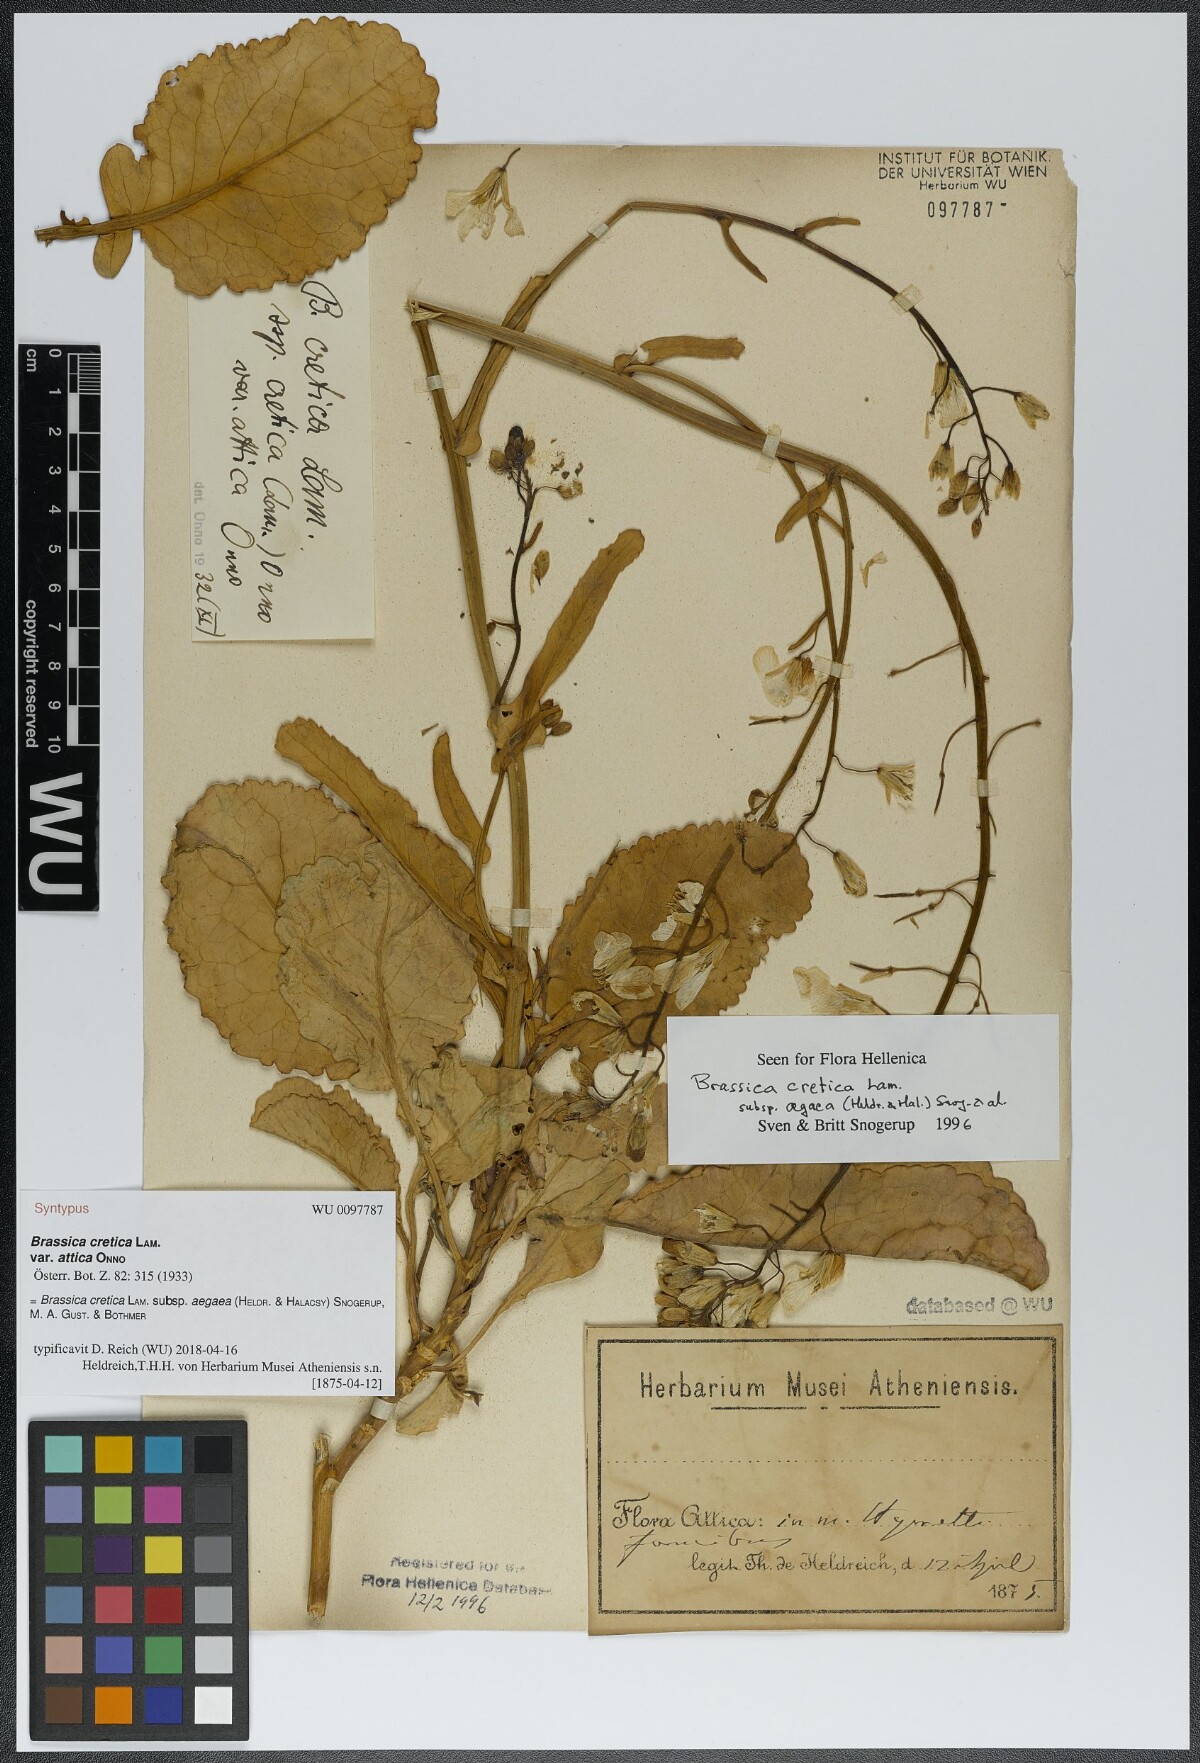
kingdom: Plantae
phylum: Tracheophyta
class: Magnoliopsida
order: Brassicales
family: Brassicaceae
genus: Brassica
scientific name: Brassica cretica
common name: Mustard
